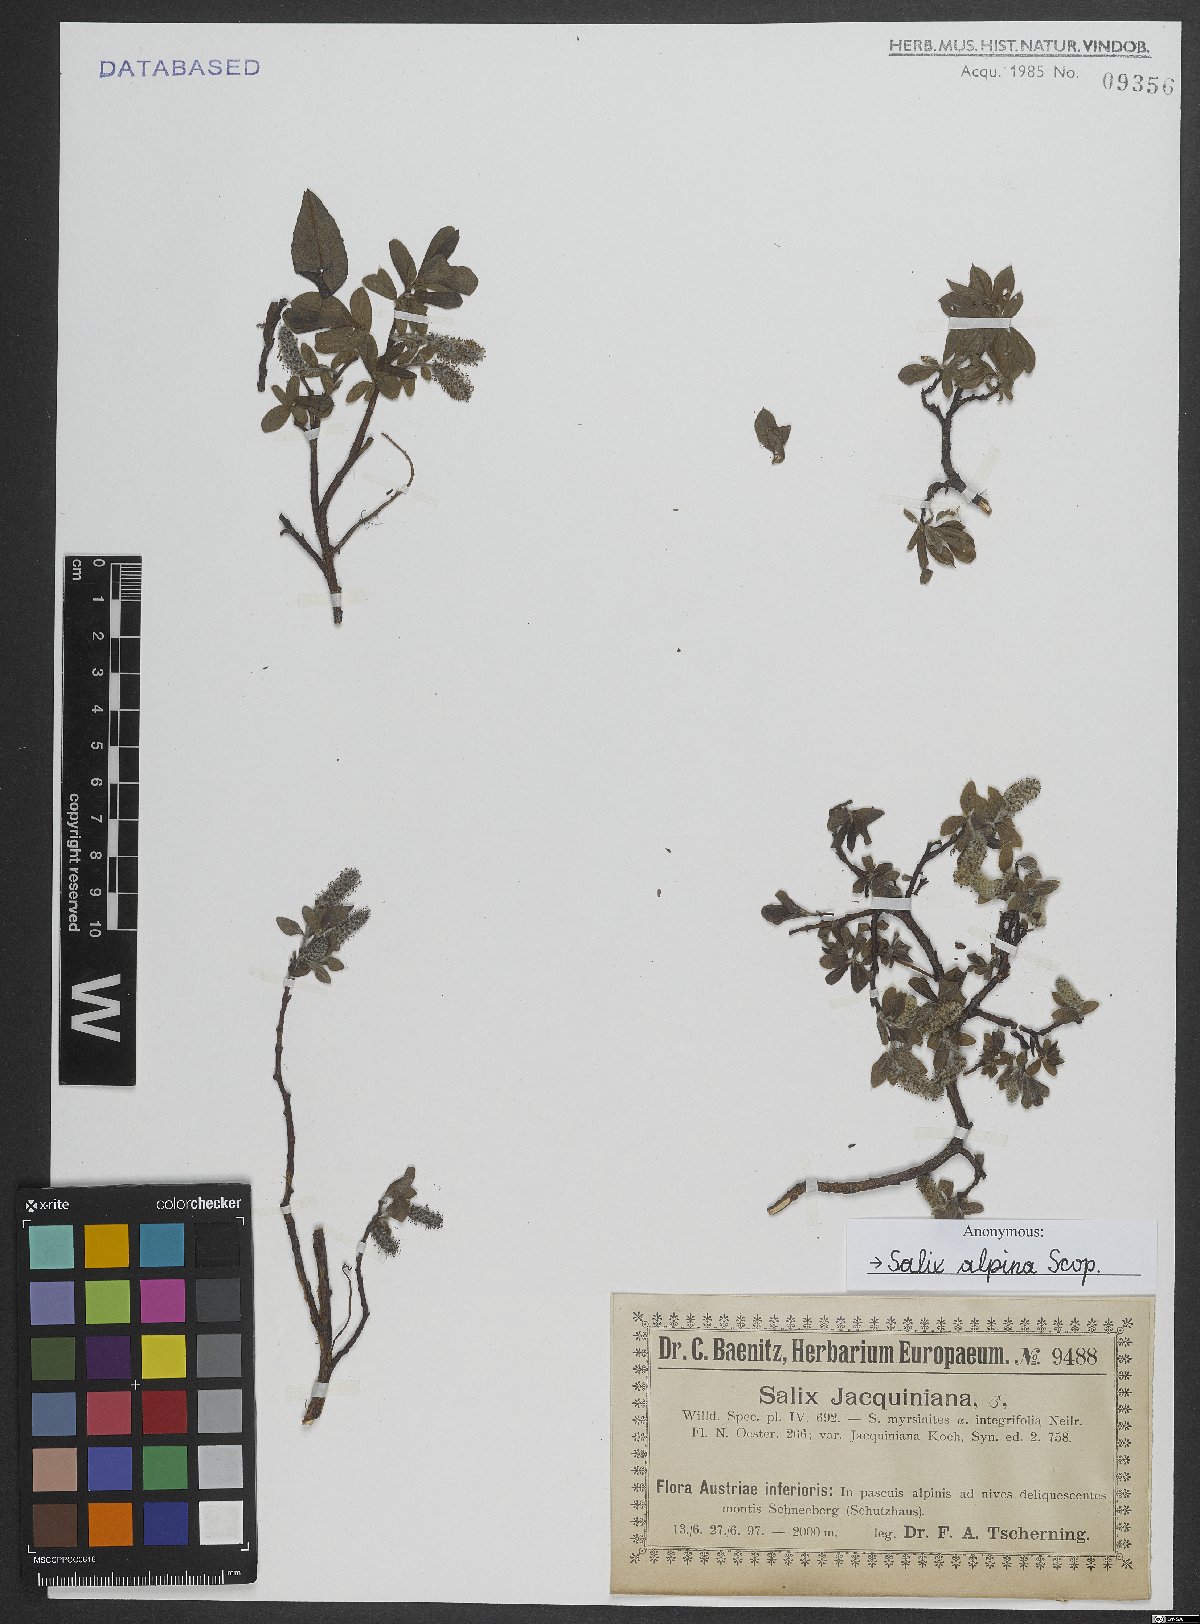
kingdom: Plantae
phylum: Tracheophyta
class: Magnoliopsida
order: Malpighiales
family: Salicaceae
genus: Salix
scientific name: Salix alpina
